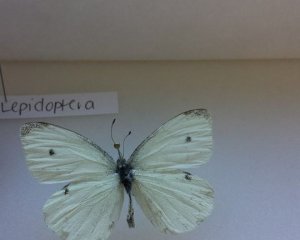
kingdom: Animalia
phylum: Arthropoda
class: Insecta
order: Lepidoptera
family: Pieridae
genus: Pieris
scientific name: Pieris rapae
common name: Cabbage White
